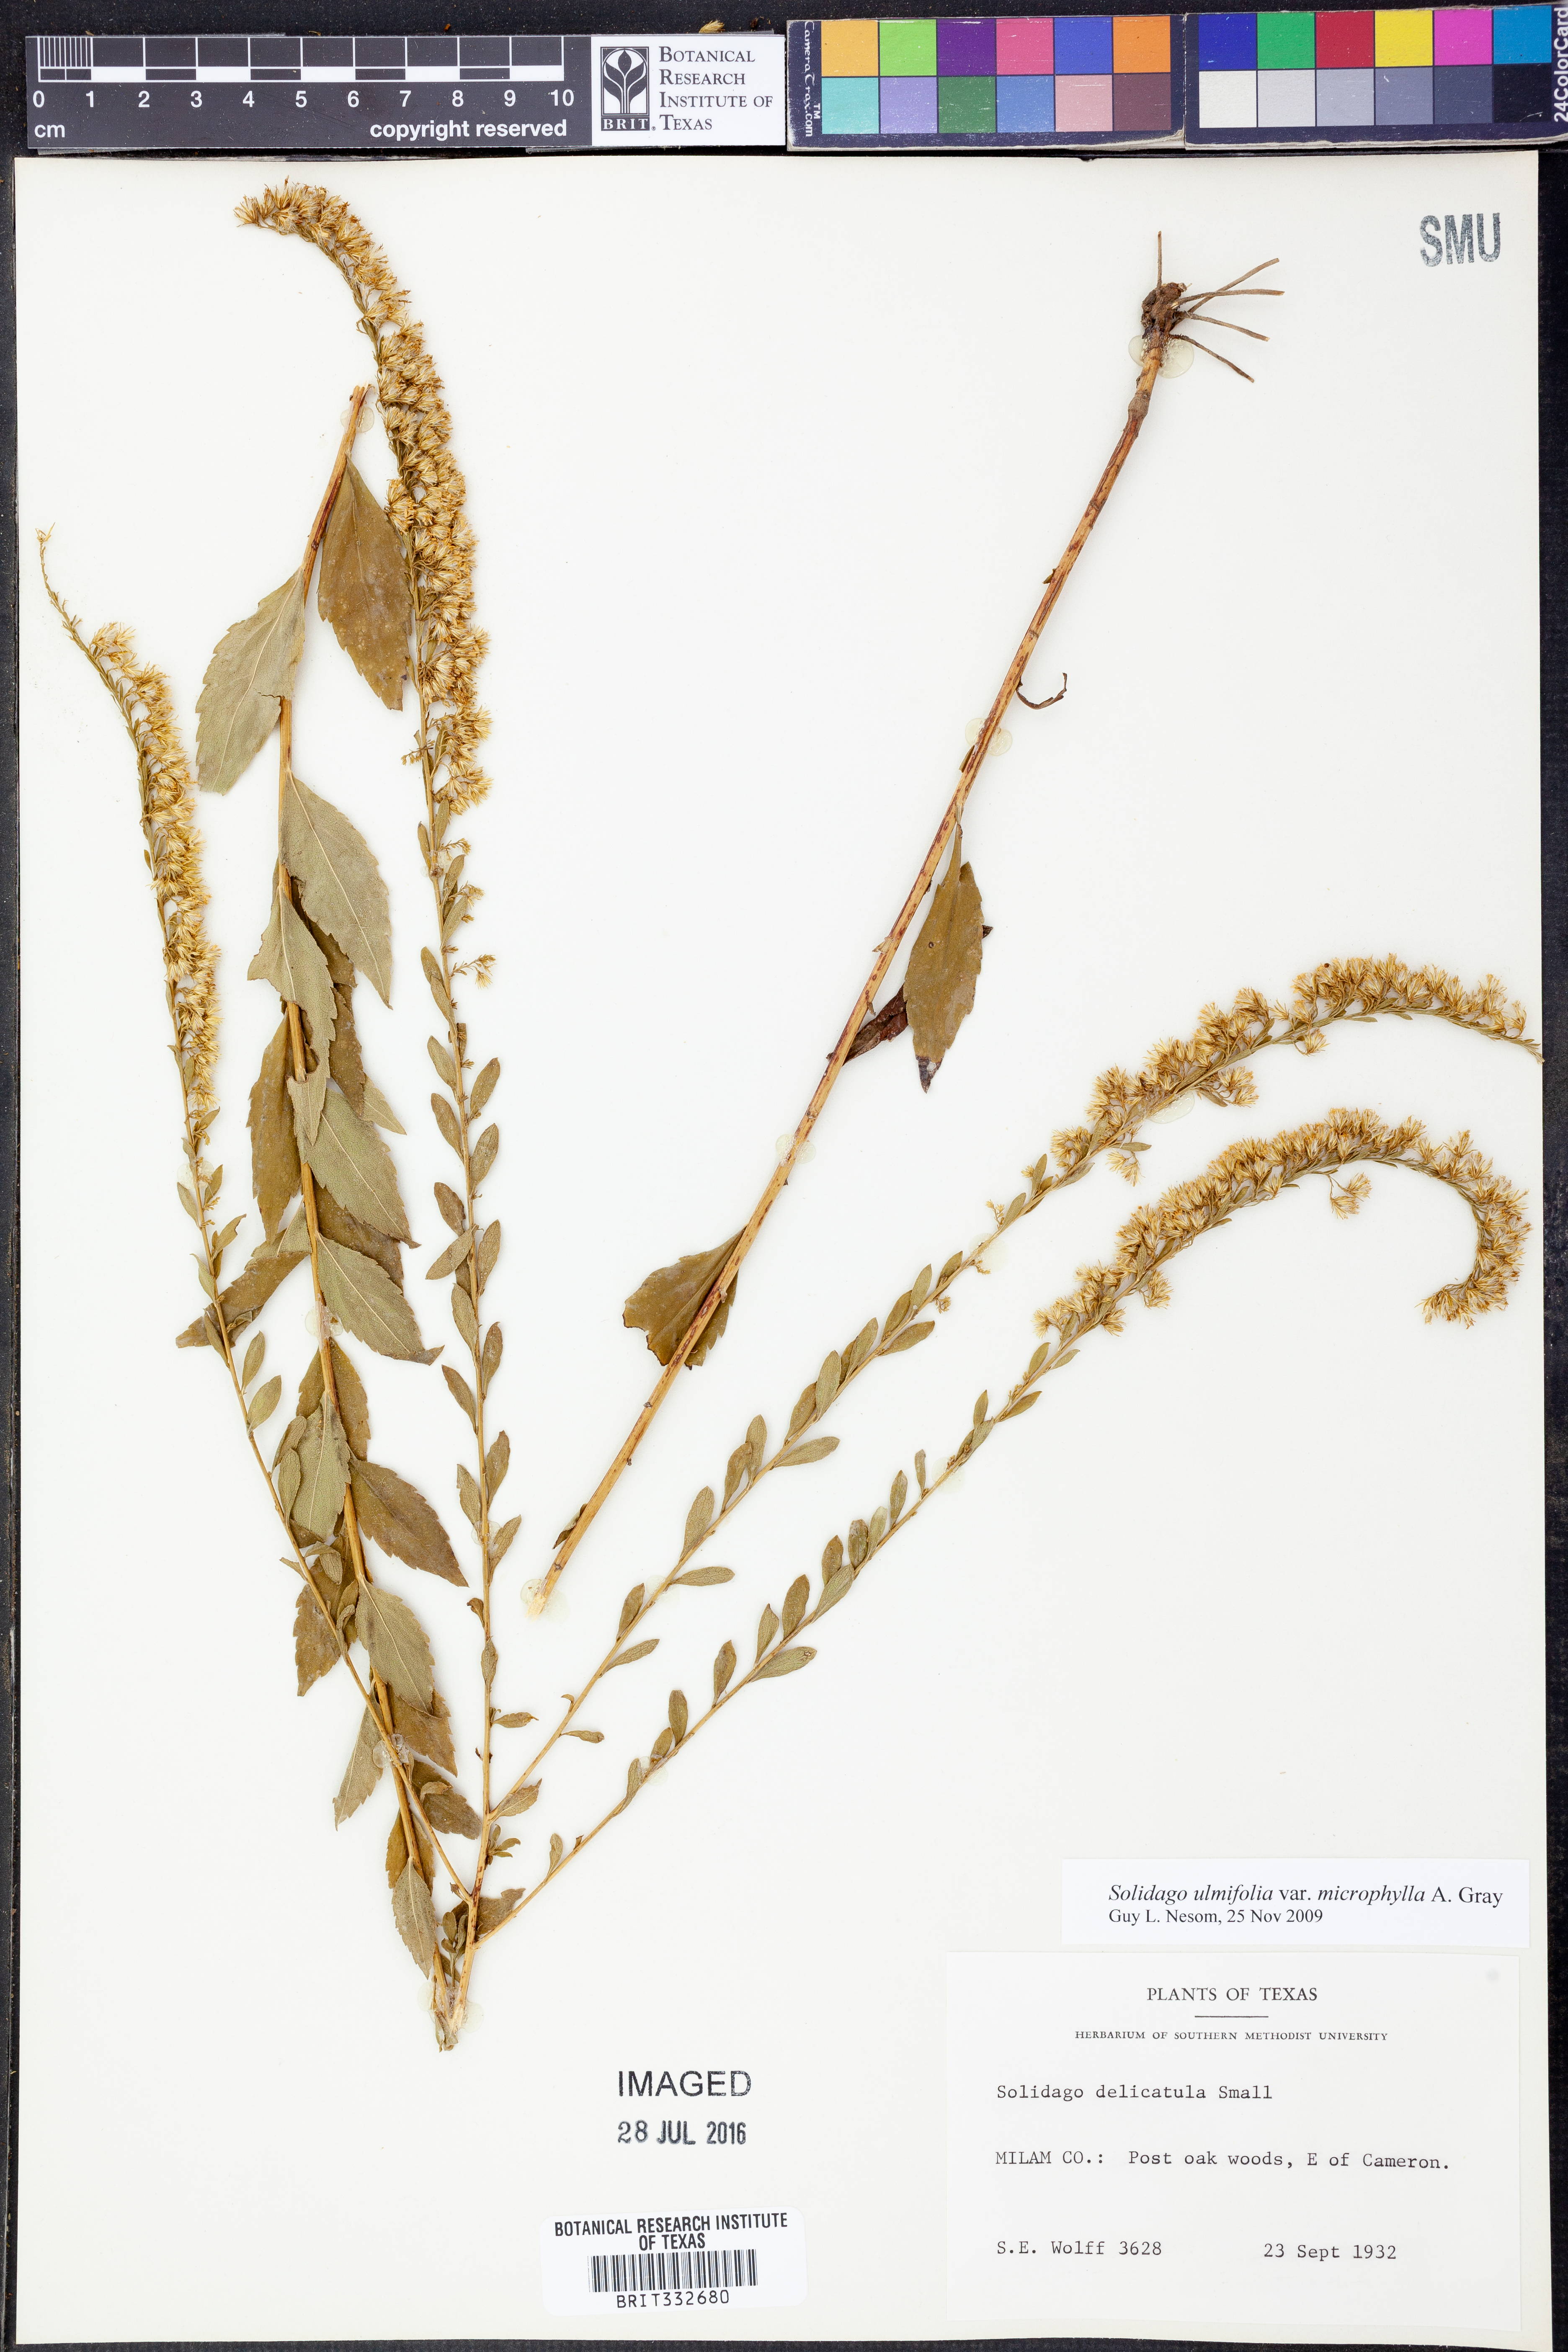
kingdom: Plantae
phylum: Tracheophyta
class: Magnoliopsida
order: Asterales
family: Asteraceae
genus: Solidago
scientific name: Solidago delicatula
